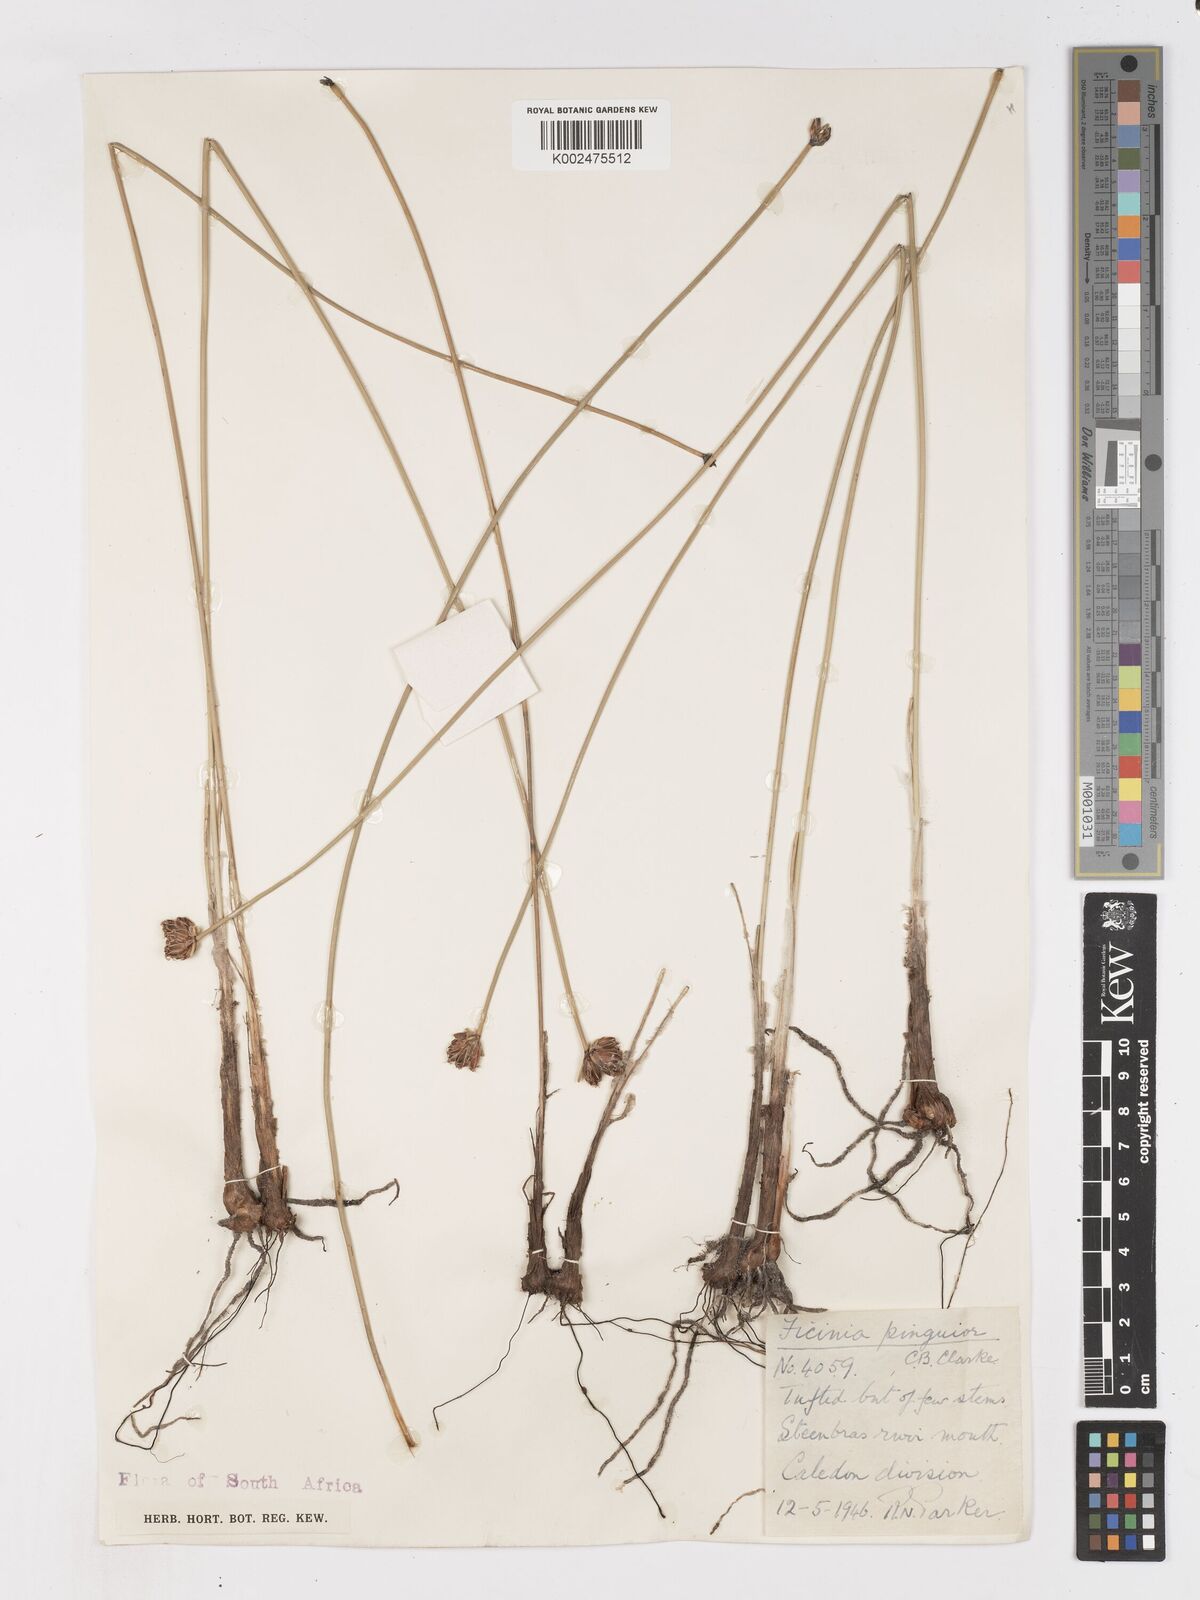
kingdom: Plantae
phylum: Tracheophyta
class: Liliopsida
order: Poales
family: Cyperaceae
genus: Ficinia
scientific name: Ficinia pinguior
